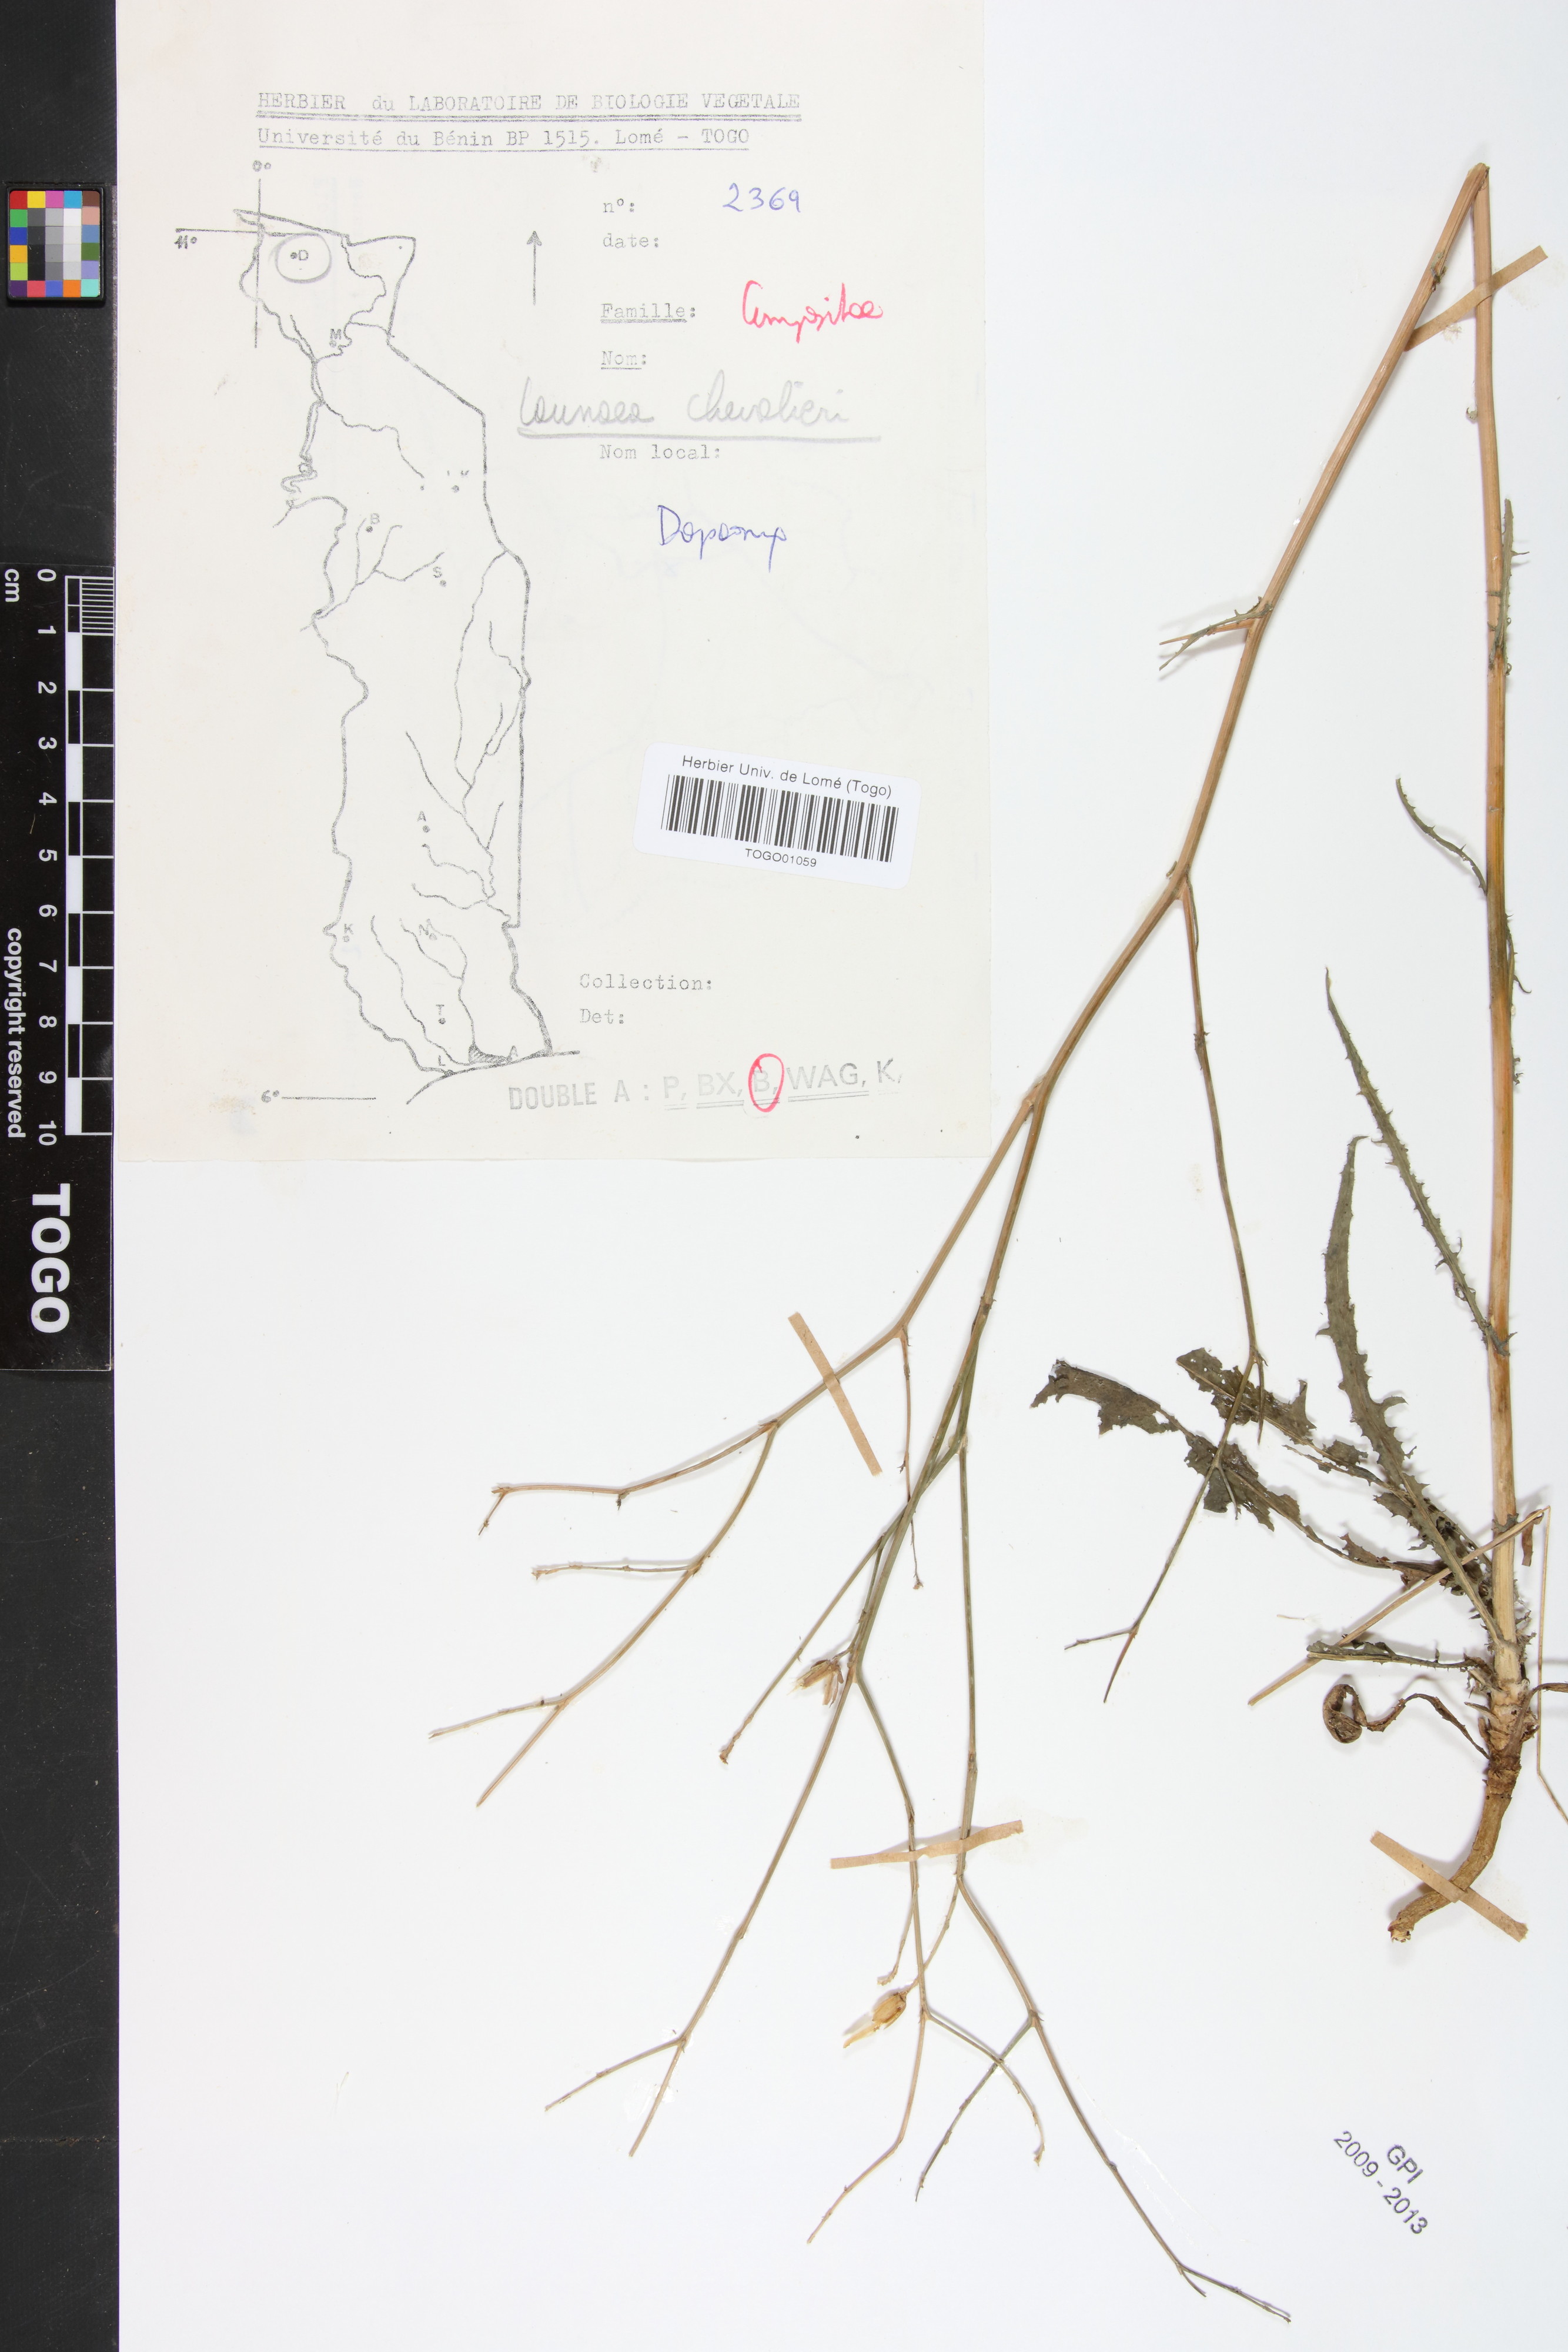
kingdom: Plantae
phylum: Tracheophyta
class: Magnoliopsida
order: Asterales
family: Asteraceae
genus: Launaea
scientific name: Launaea brunneri
